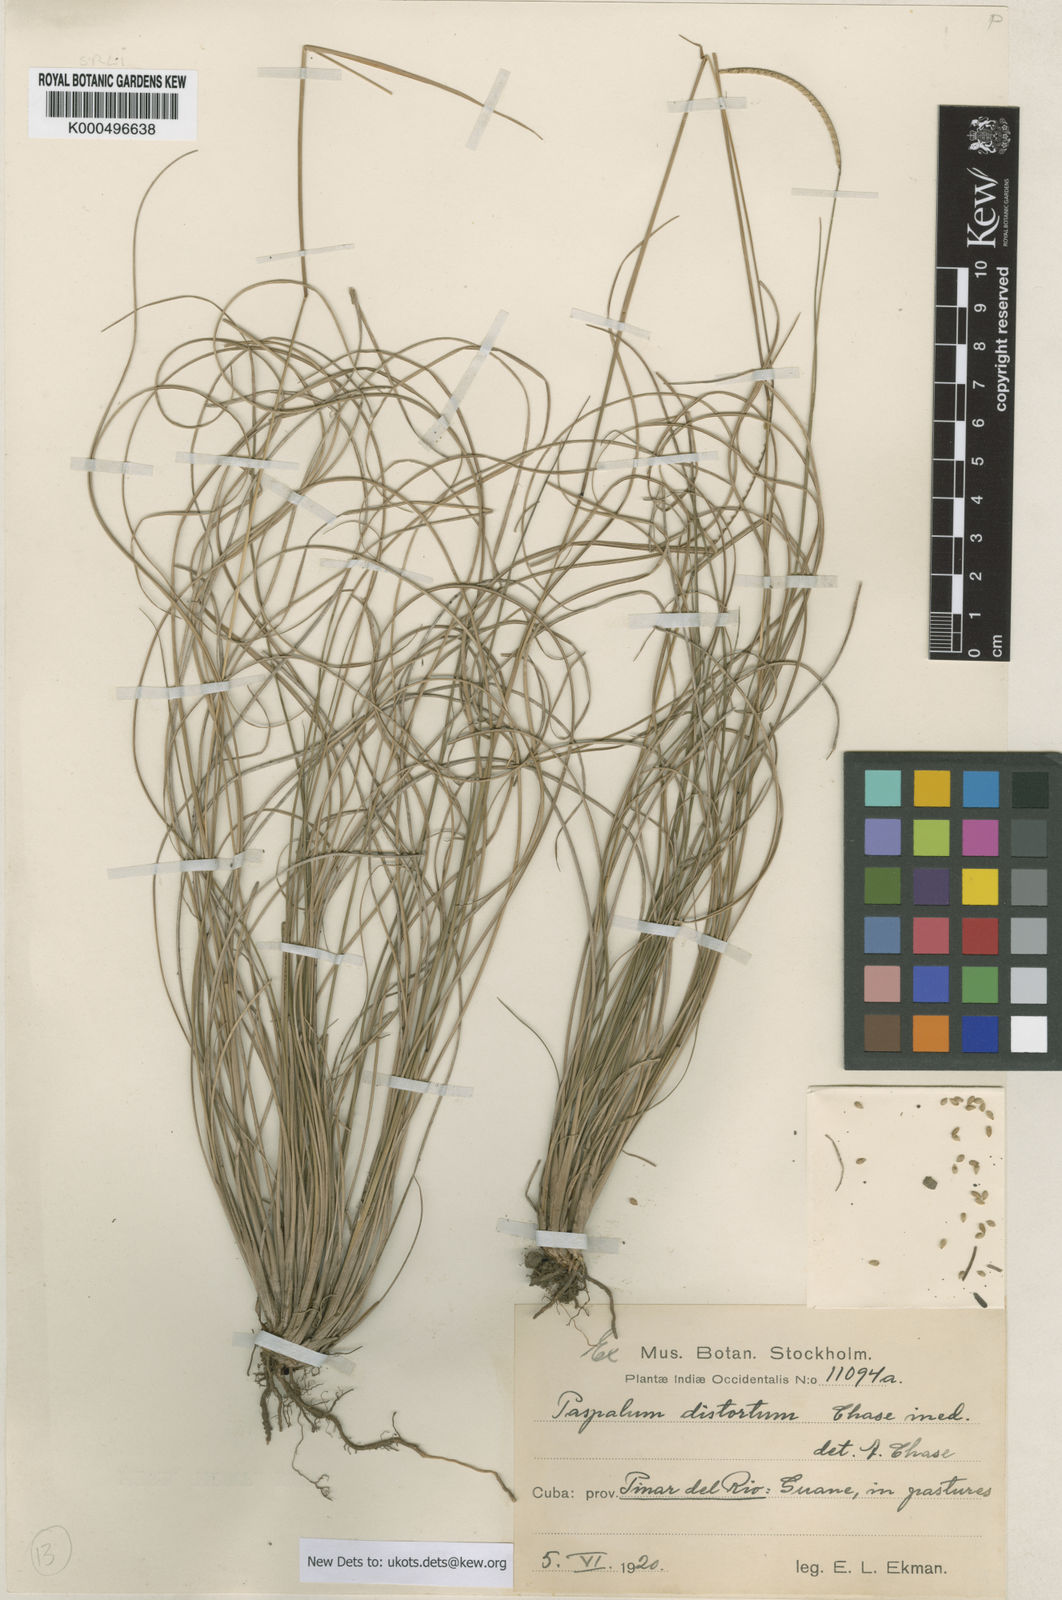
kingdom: Plantae
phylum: Tracheophyta
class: Liliopsida
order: Poales
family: Poaceae
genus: Paspalum
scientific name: Paspalum distortum
